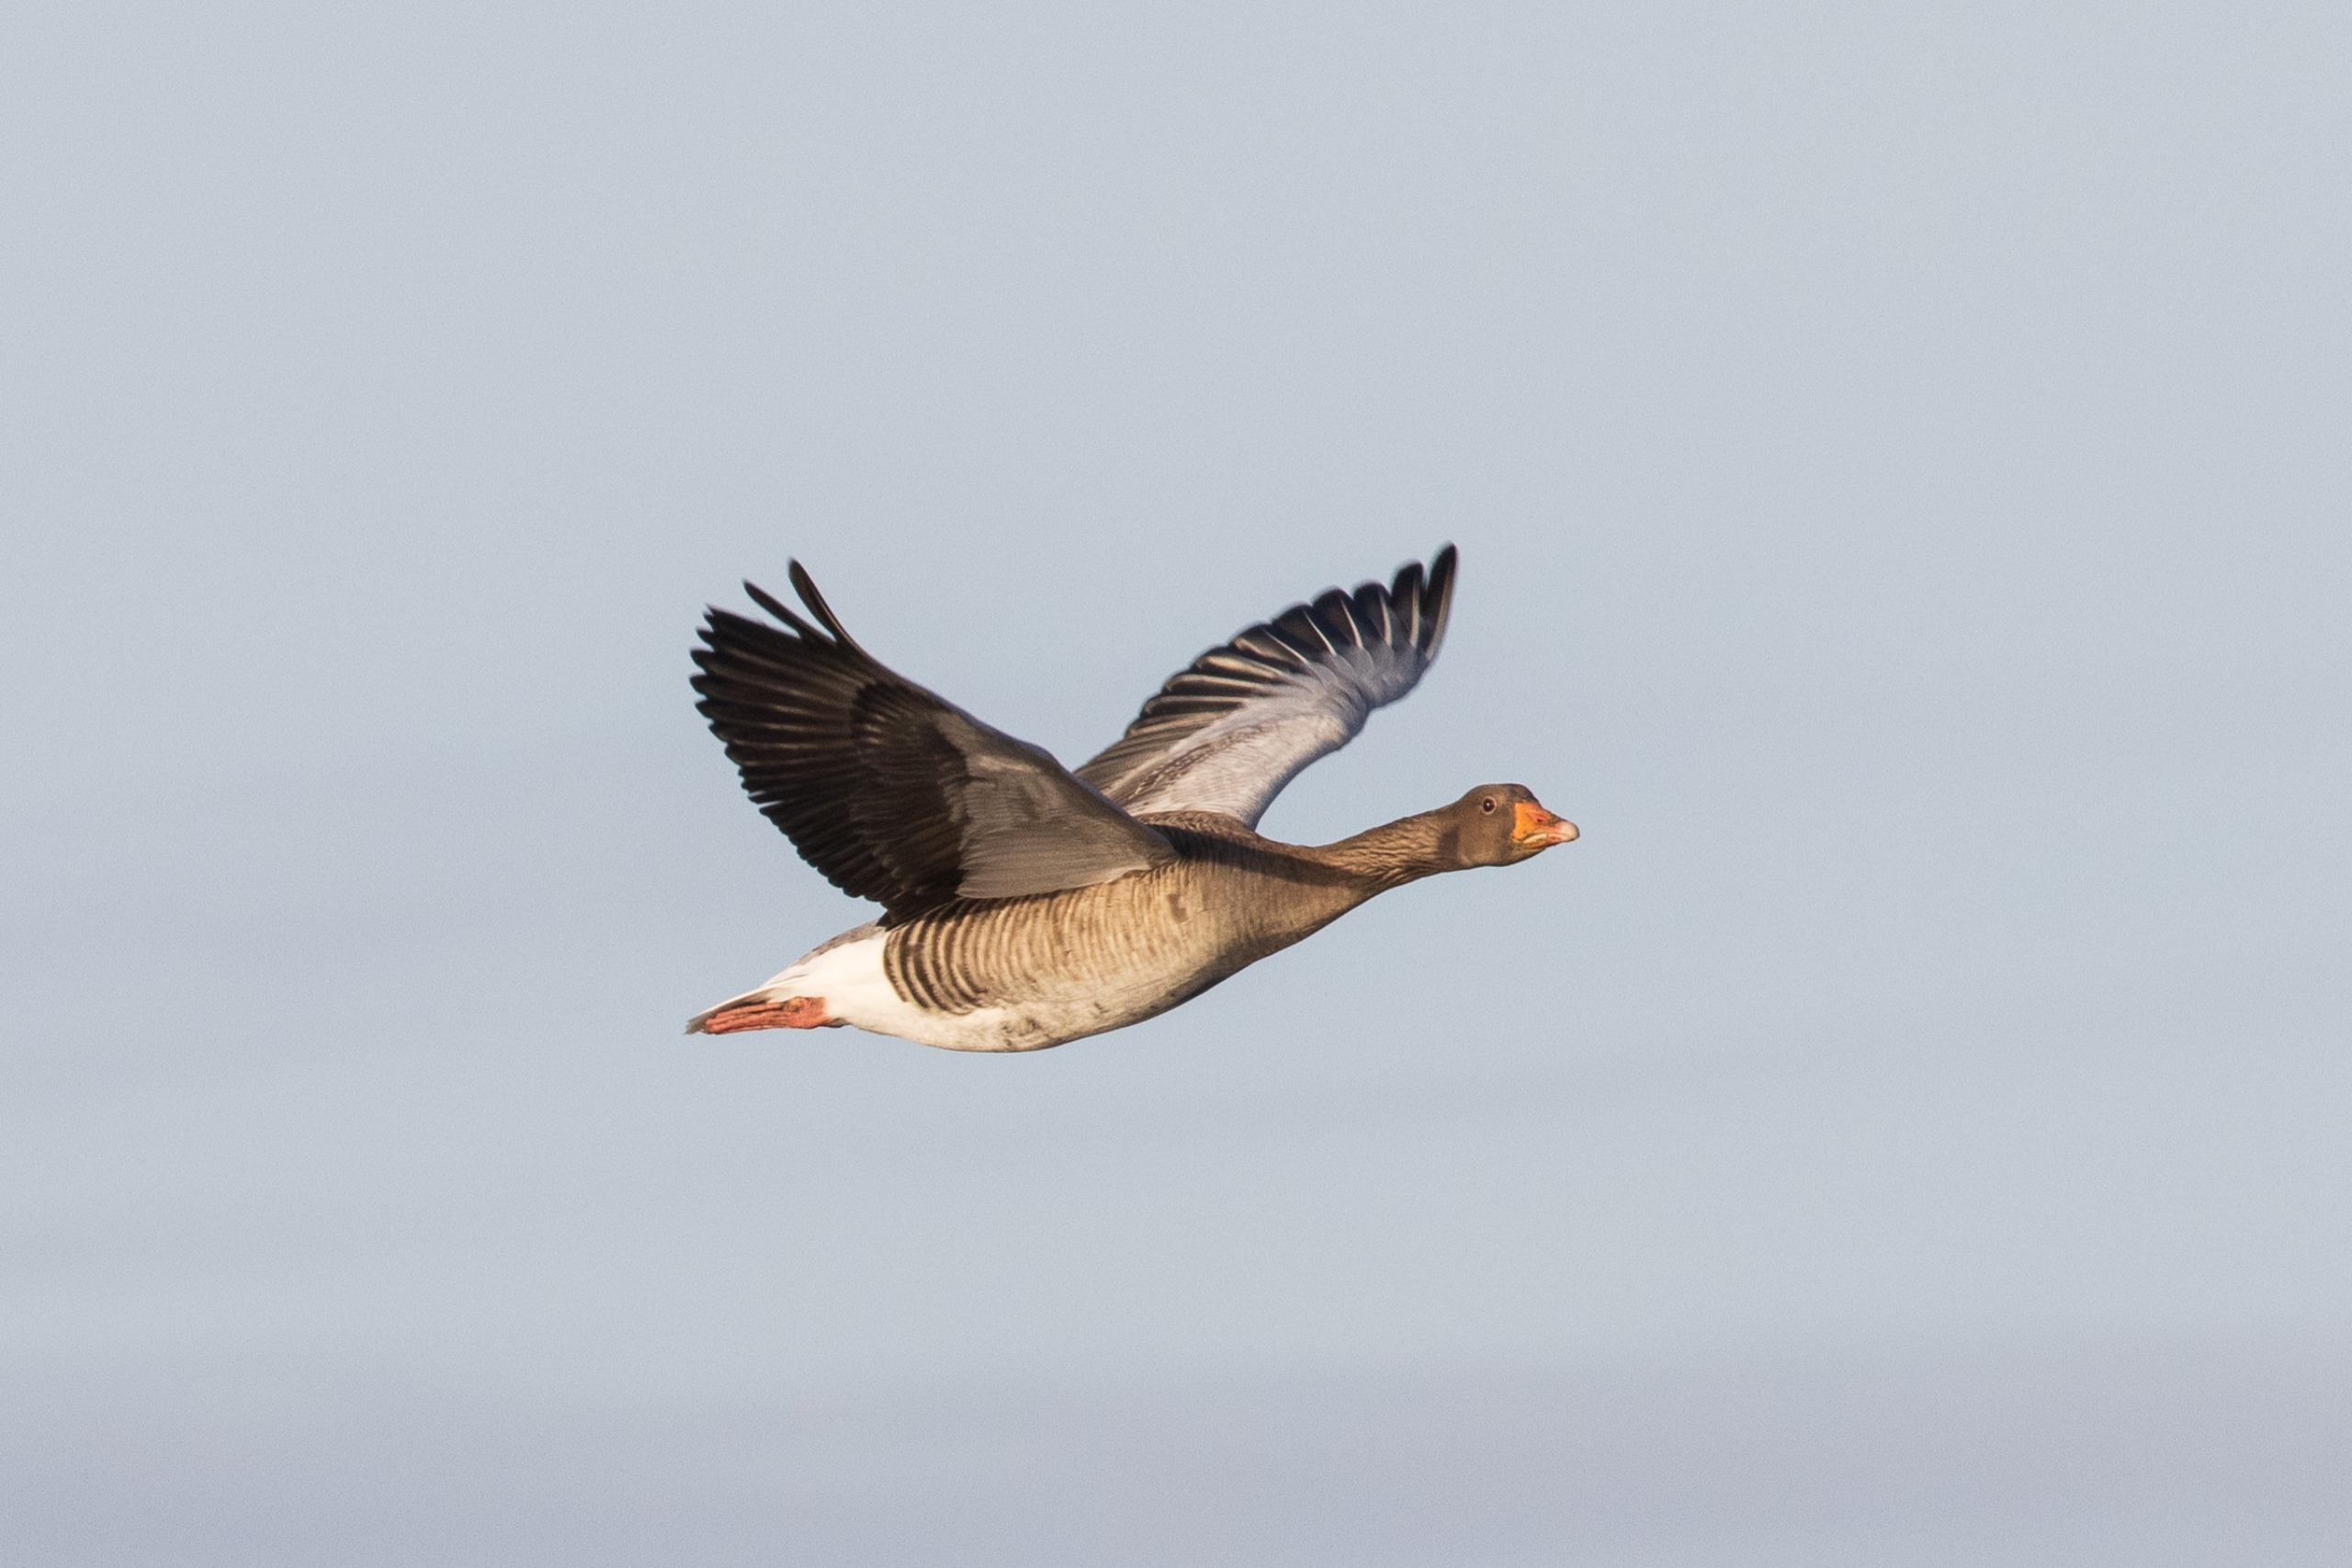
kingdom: Animalia
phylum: Chordata
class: Aves
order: Anseriformes
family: Anatidae
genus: Anser
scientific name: Anser anser
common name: Grågås
